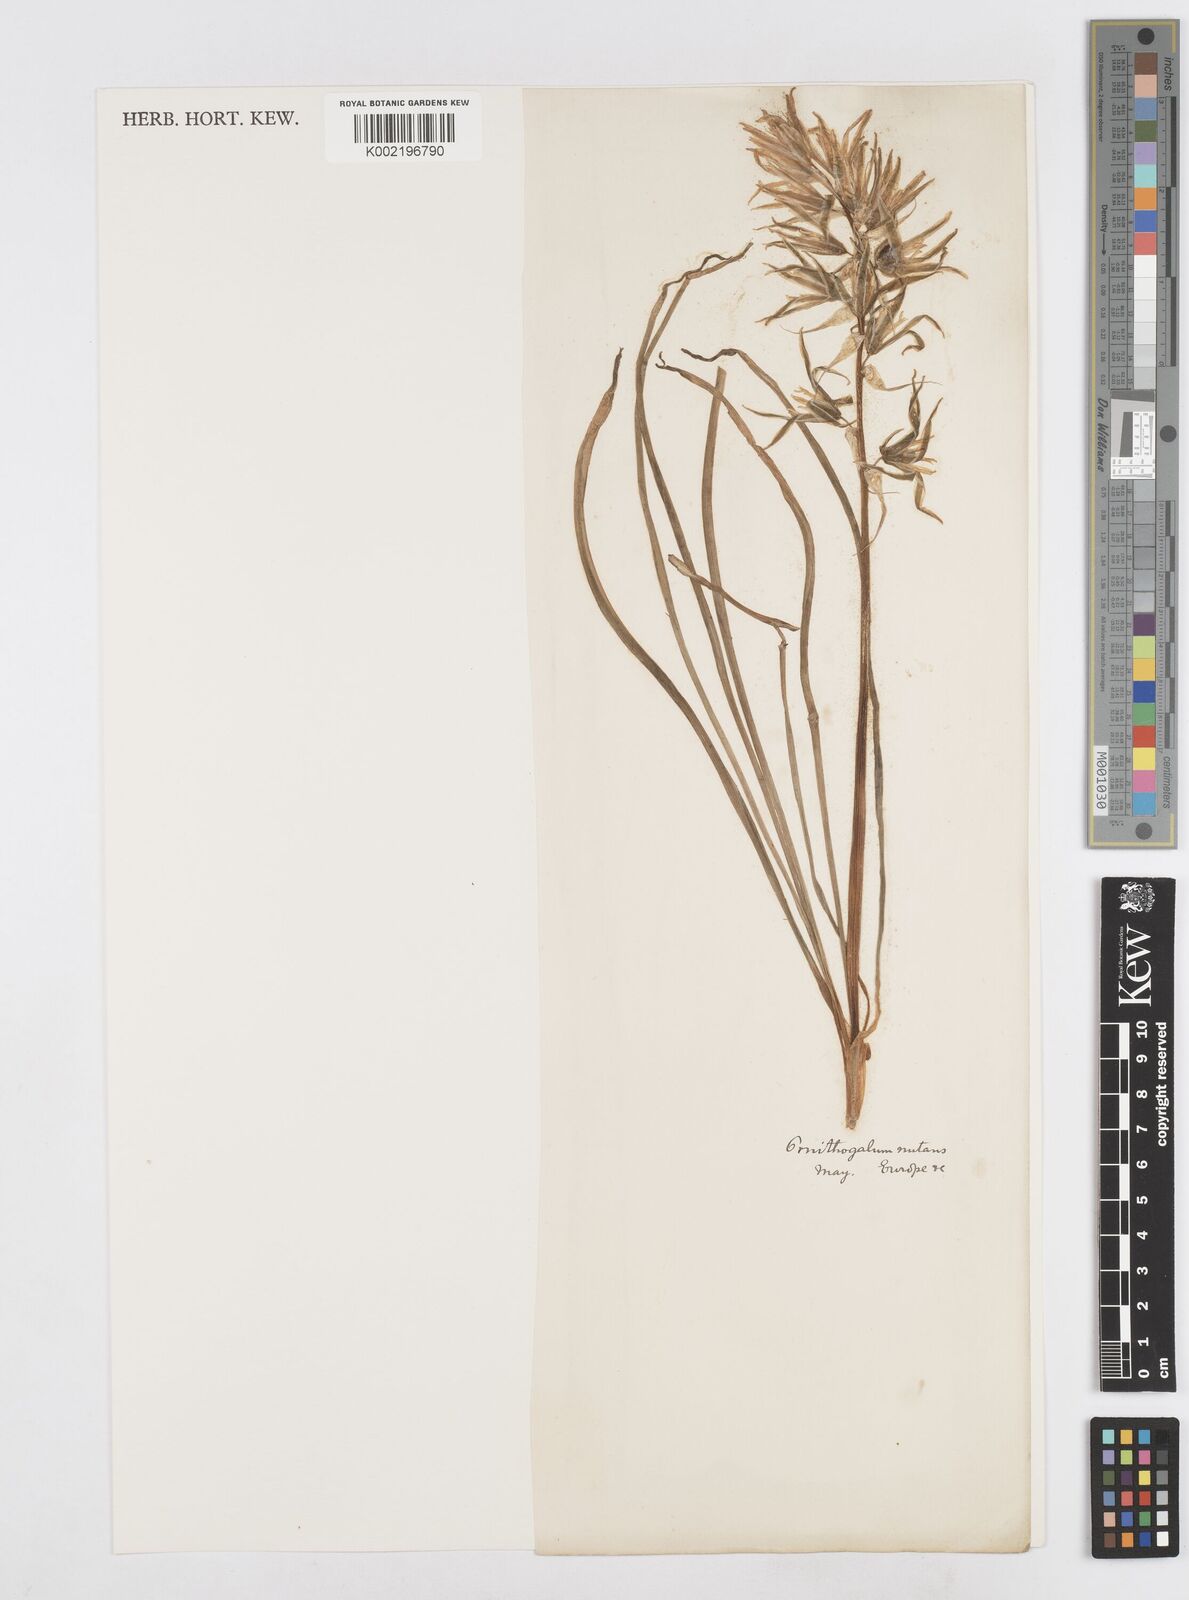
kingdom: Plantae
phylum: Tracheophyta
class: Liliopsida
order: Asparagales
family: Asparagaceae
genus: Ornithogalum
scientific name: Ornithogalum nutans
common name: Drooping star-of-bethlehem
